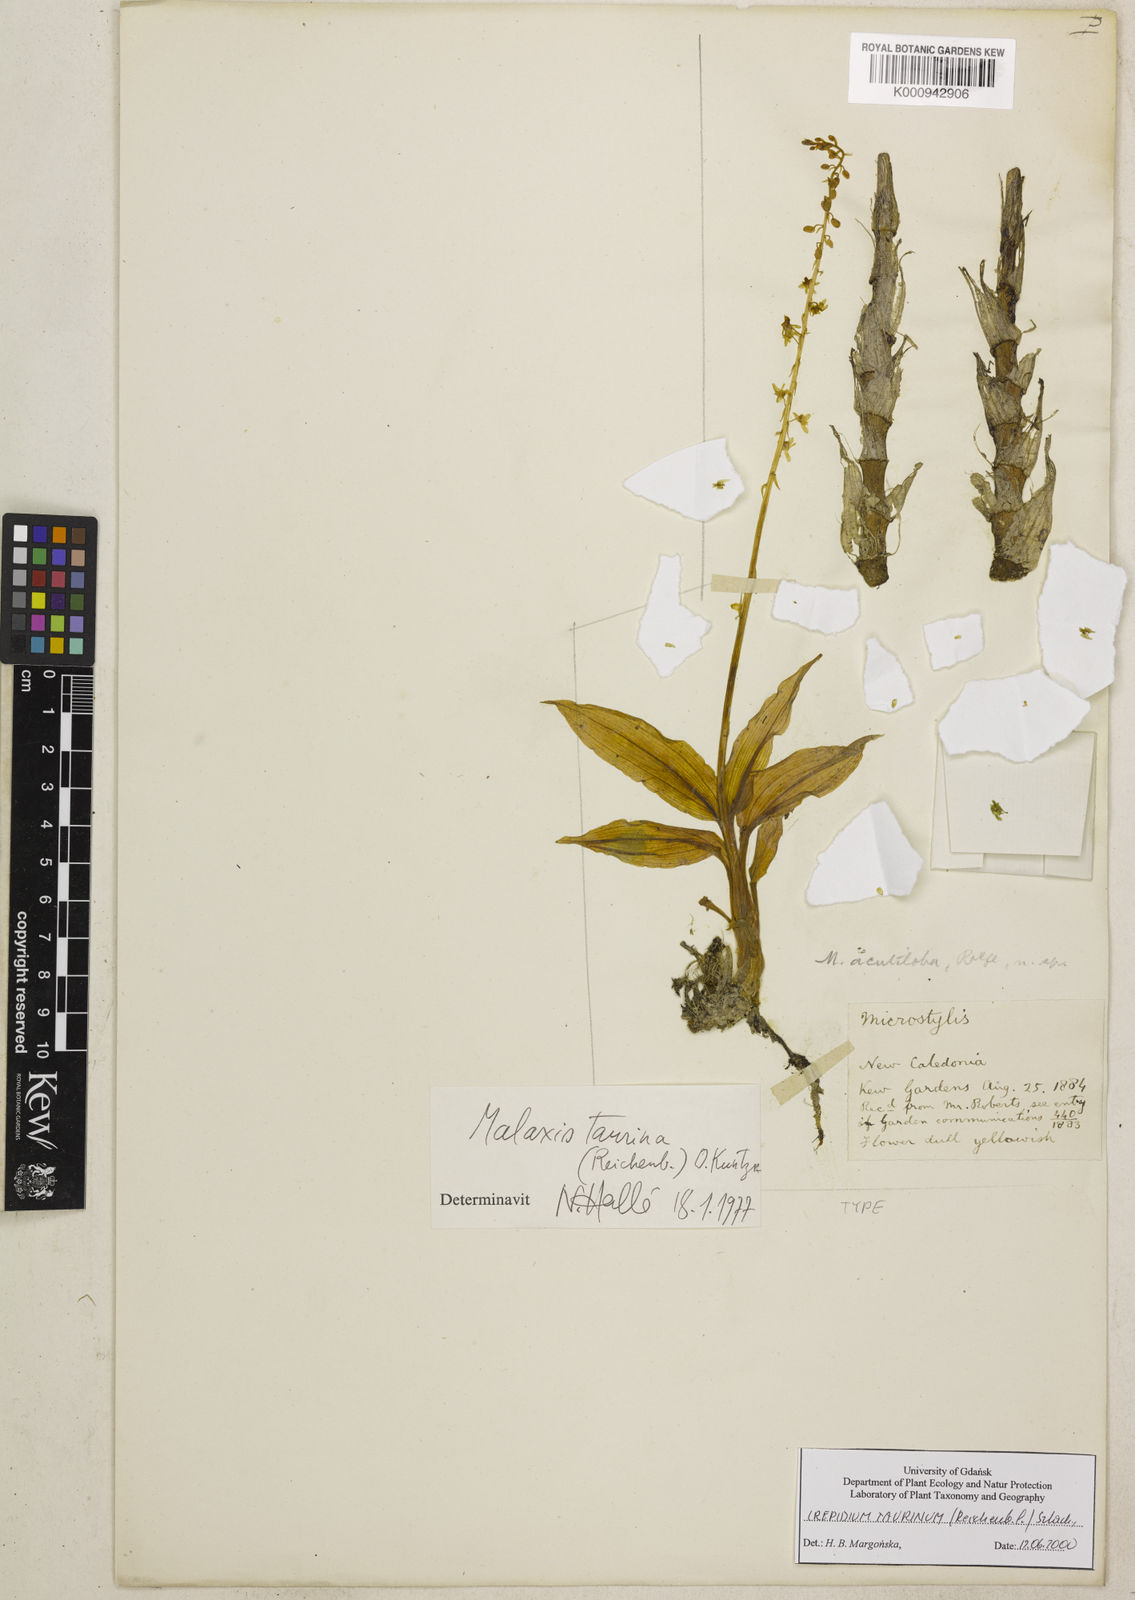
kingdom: Plantae
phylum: Tracheophyta
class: Liliopsida
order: Asparagales
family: Orchidaceae
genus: Crepidium
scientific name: Crepidium taurinum
